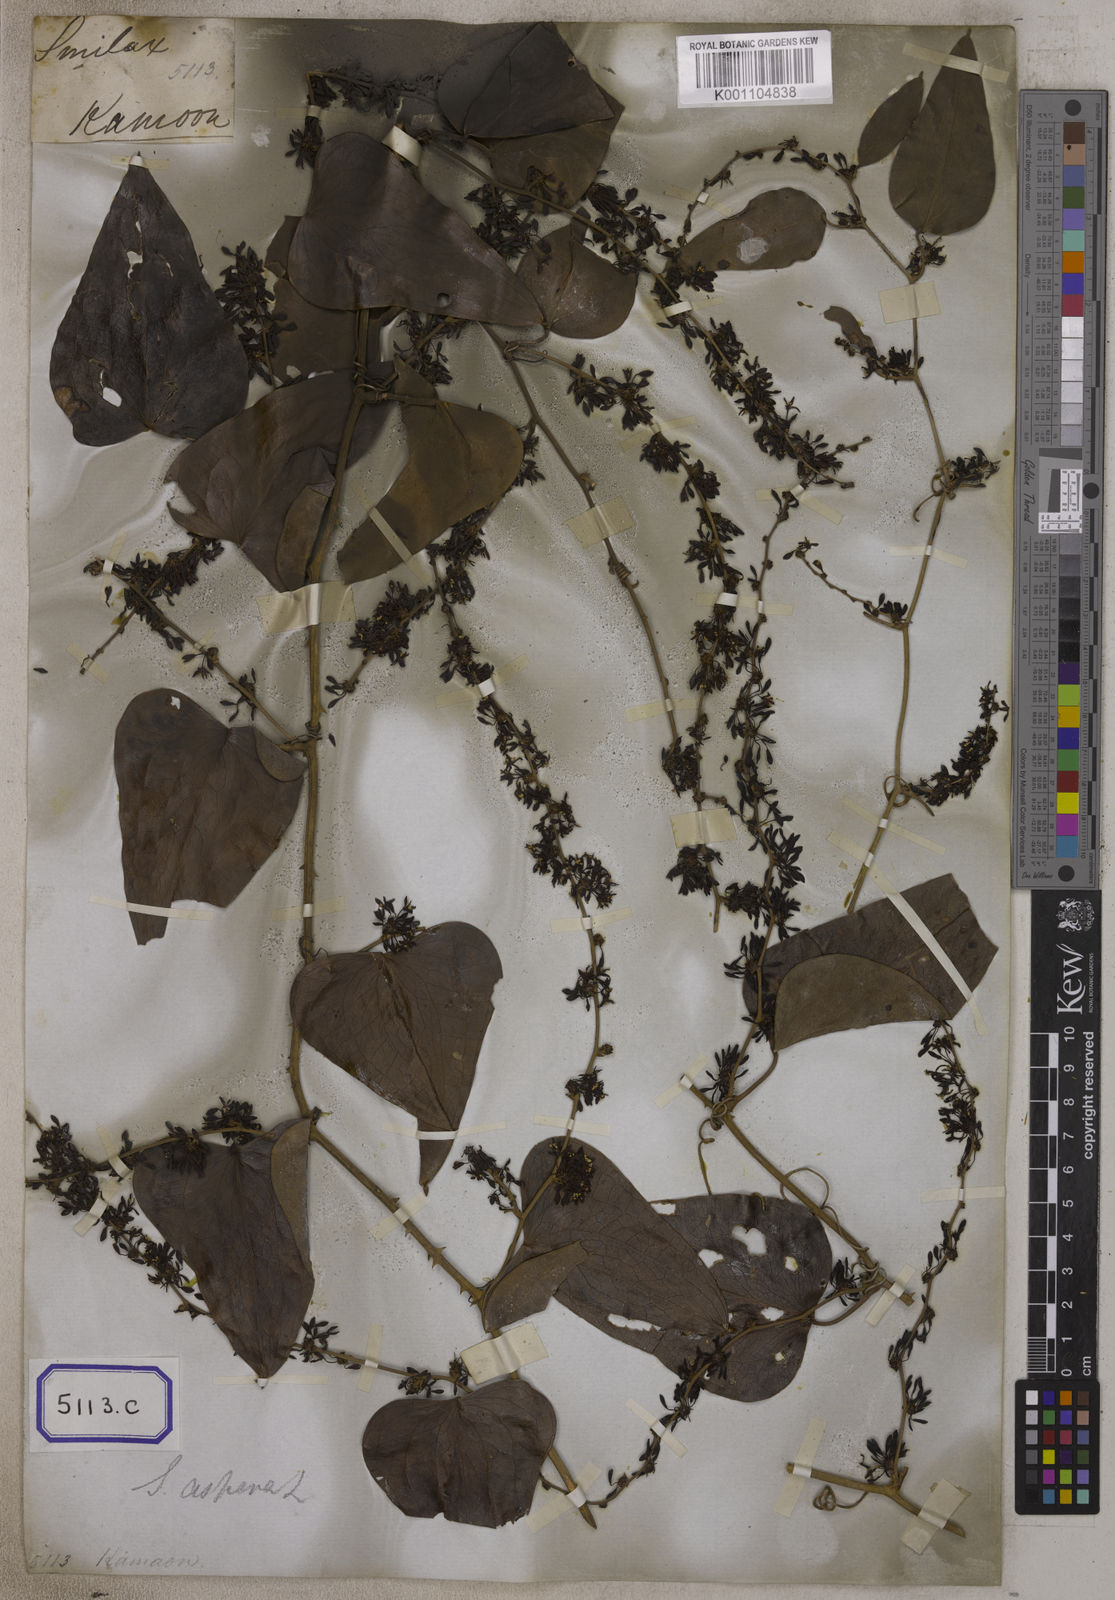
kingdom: Plantae
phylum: Tracheophyta
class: Liliopsida
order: Liliales
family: Smilacaceae
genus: Smilax
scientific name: Smilax
